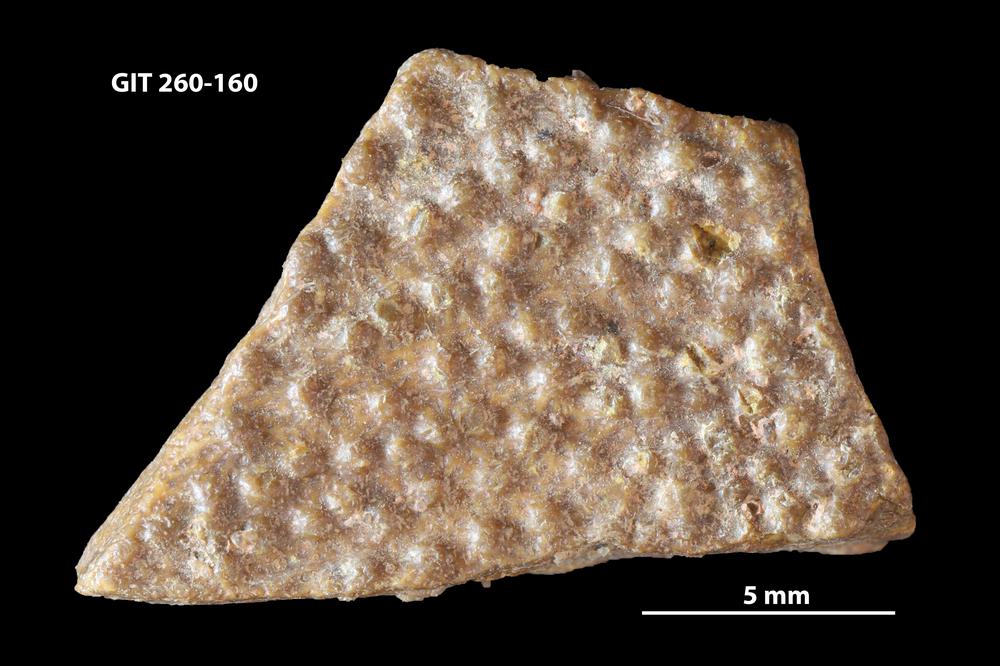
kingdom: Animalia
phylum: Chordata
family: Homostiidae
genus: Homostius
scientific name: Homostius
